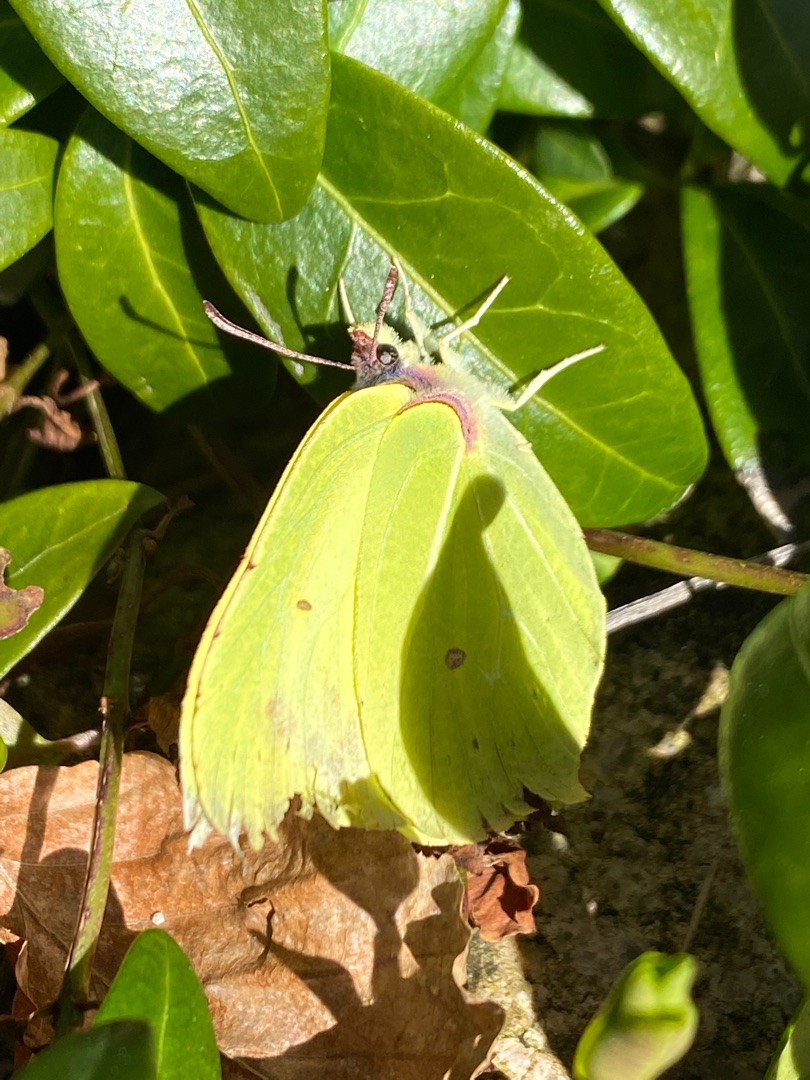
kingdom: Animalia
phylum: Arthropoda
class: Insecta
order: Lepidoptera
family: Pieridae
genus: Gonepteryx
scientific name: Gonepteryx rhamni
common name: Citronsommerfugl
